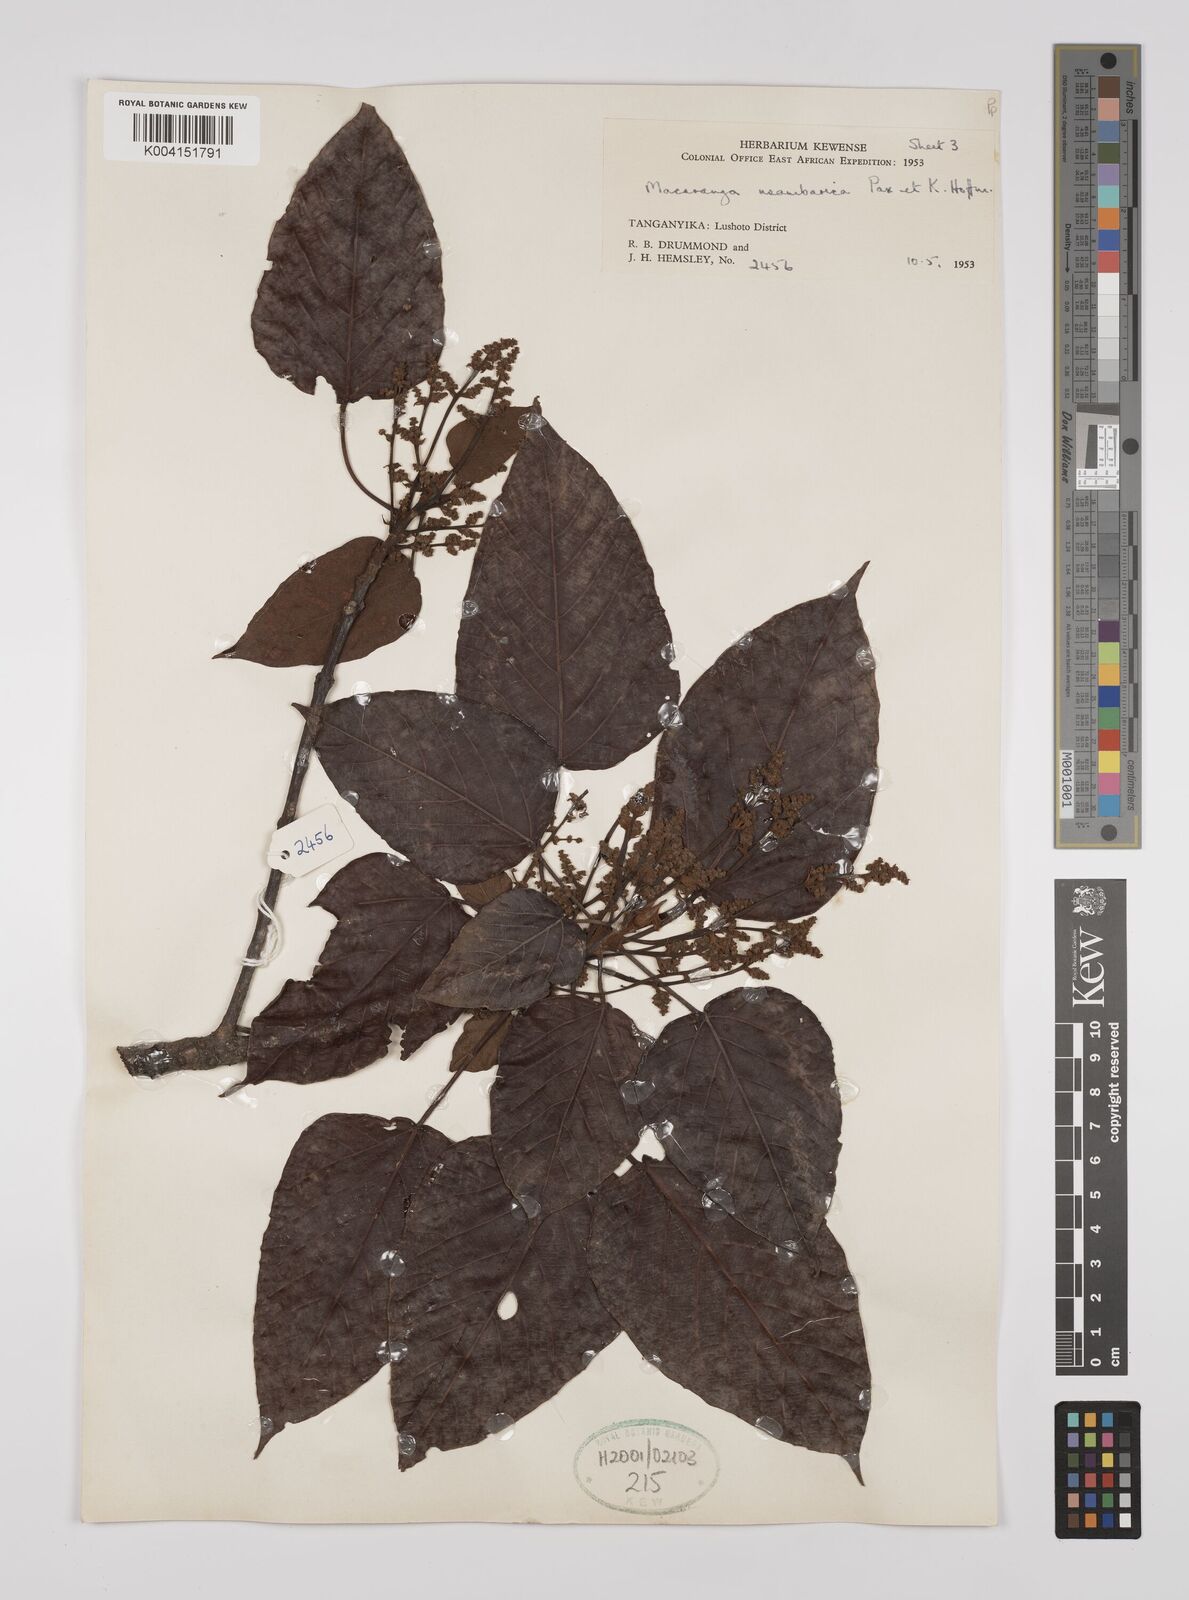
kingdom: Plantae
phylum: Tracheophyta
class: Magnoliopsida
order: Malpighiales
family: Euphorbiaceae
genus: Macaranga
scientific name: Macaranga capensis
